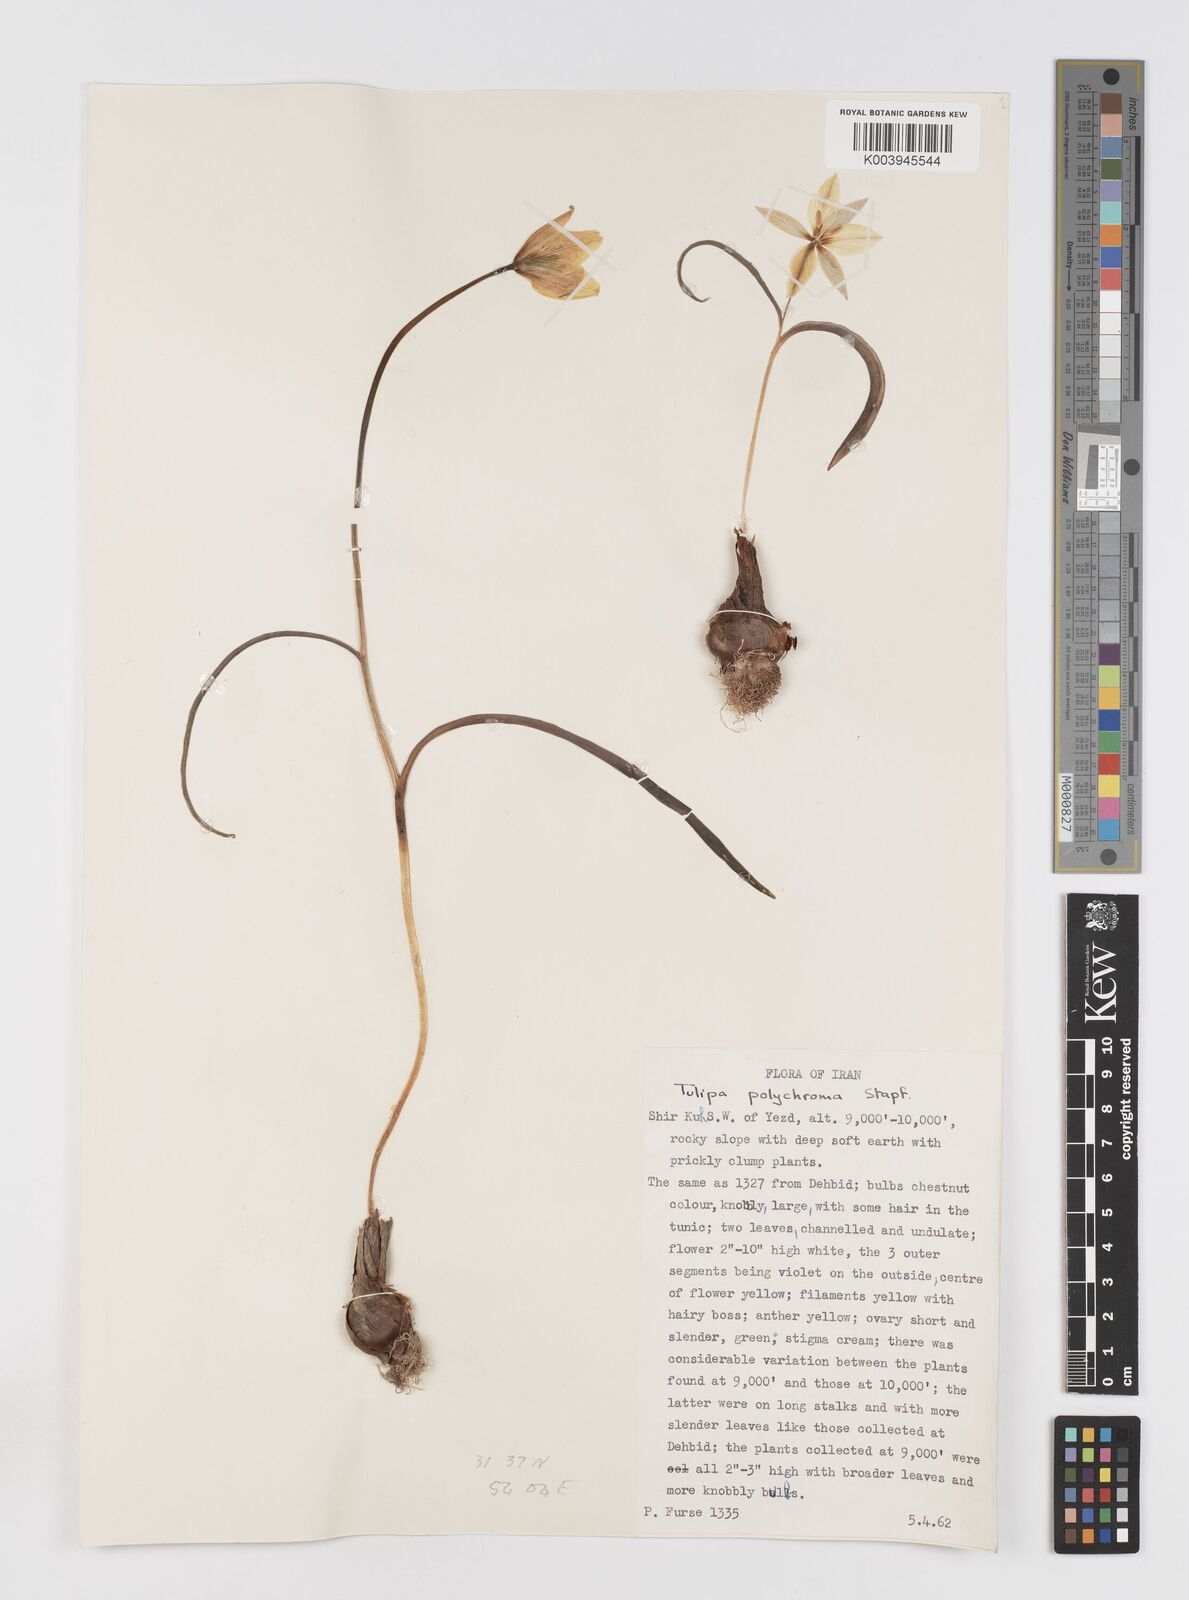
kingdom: Plantae
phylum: Tracheophyta
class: Liliopsida
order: Liliales
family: Liliaceae
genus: Tulipa
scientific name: Tulipa biflora
